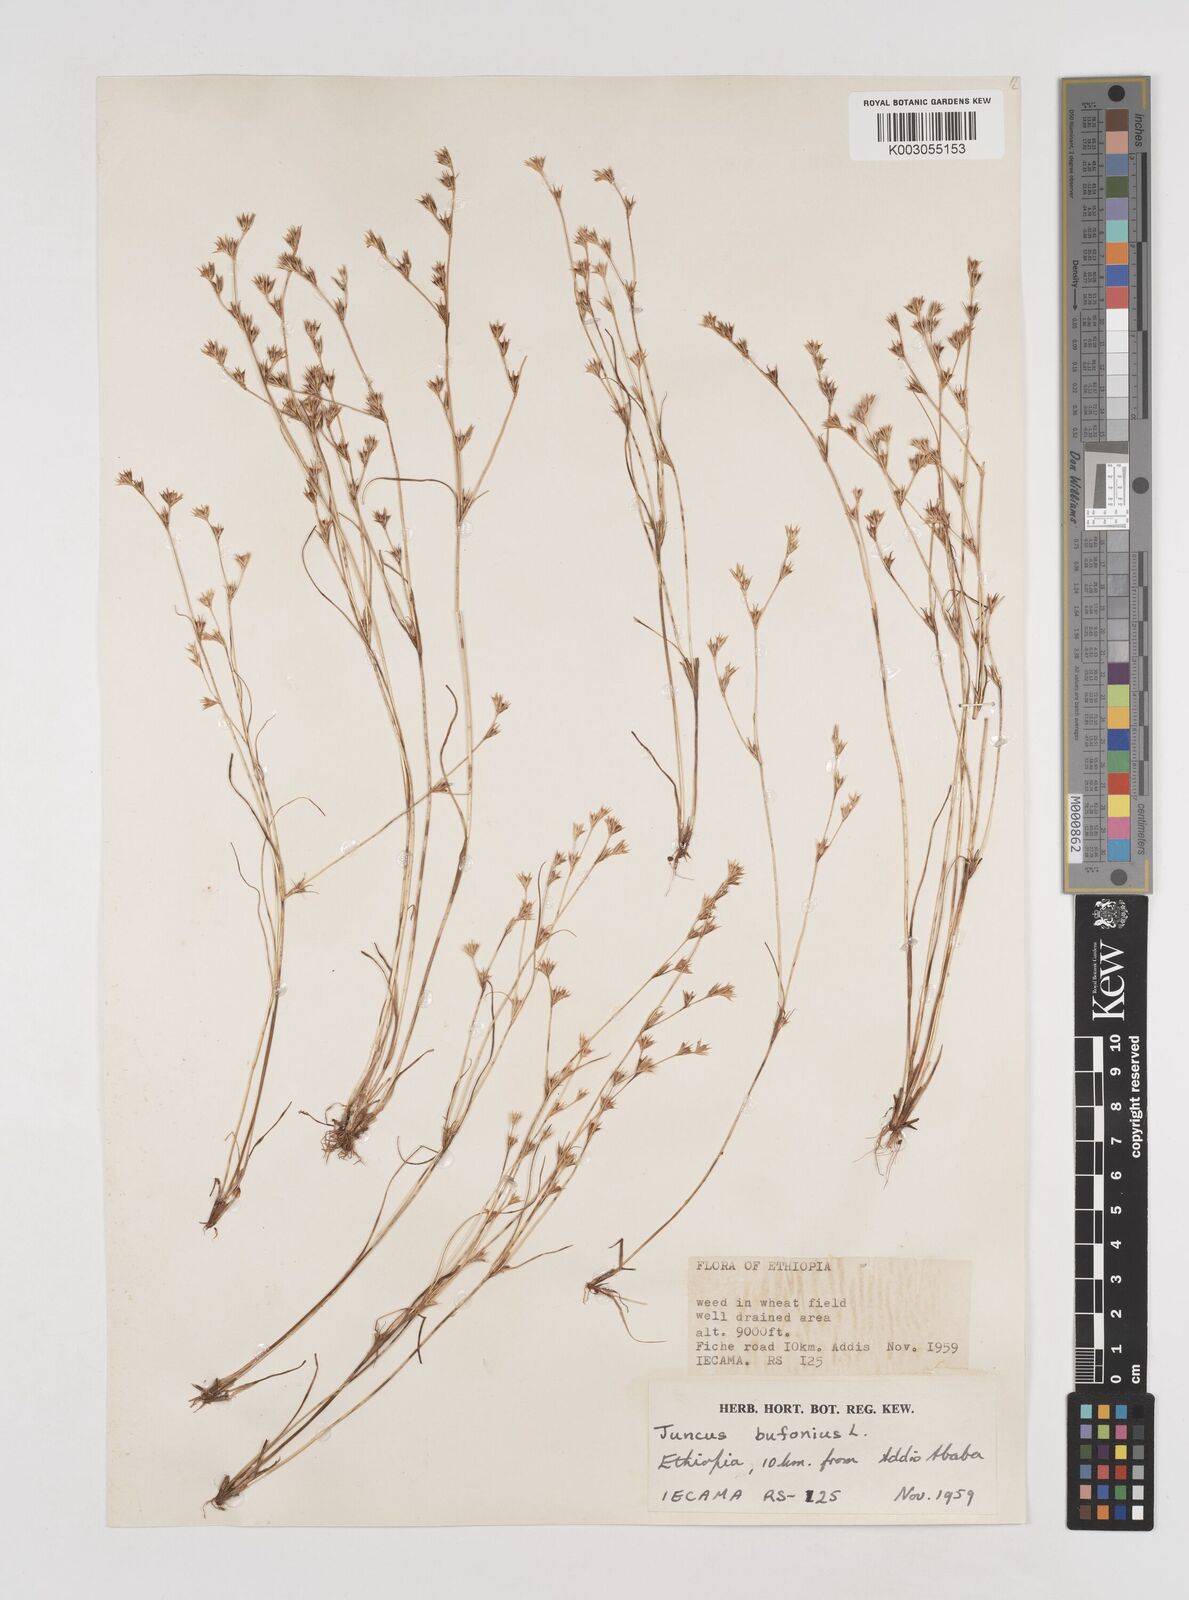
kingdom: Plantae
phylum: Tracheophyta
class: Liliopsida
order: Poales
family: Juncaceae
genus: Juncus
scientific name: Juncus bufonius
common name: Toad rush
